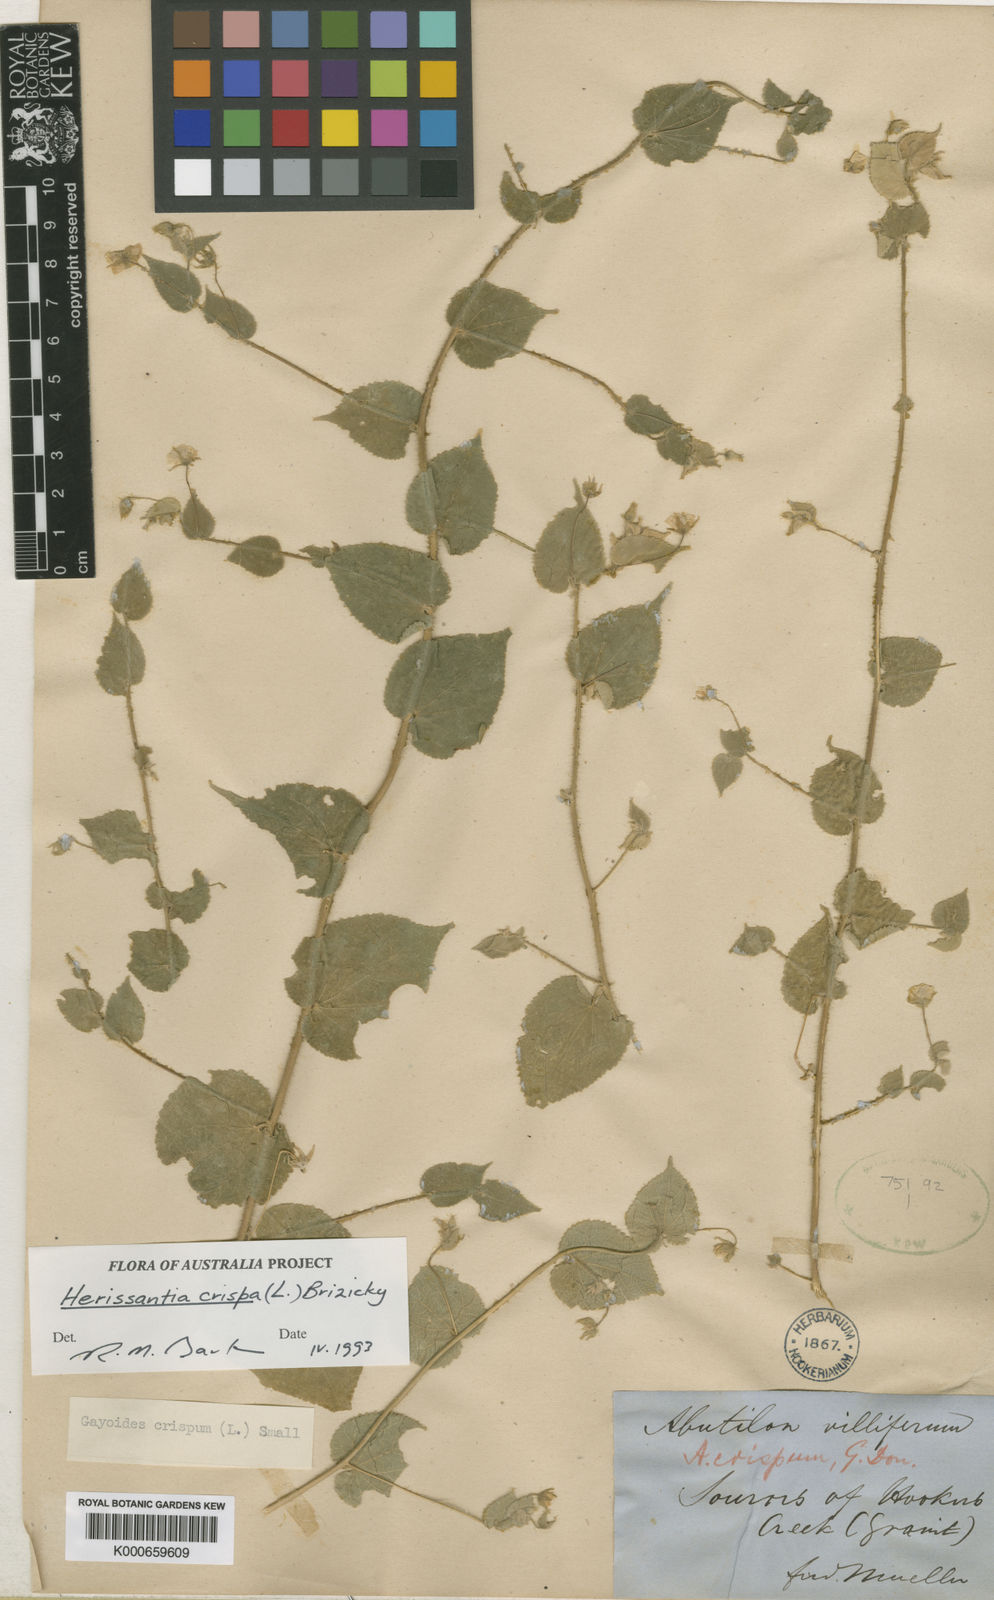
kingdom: Plantae
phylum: Tracheophyta
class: Magnoliopsida
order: Malvales
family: Malvaceae
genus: Abutilon
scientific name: Abutilon
